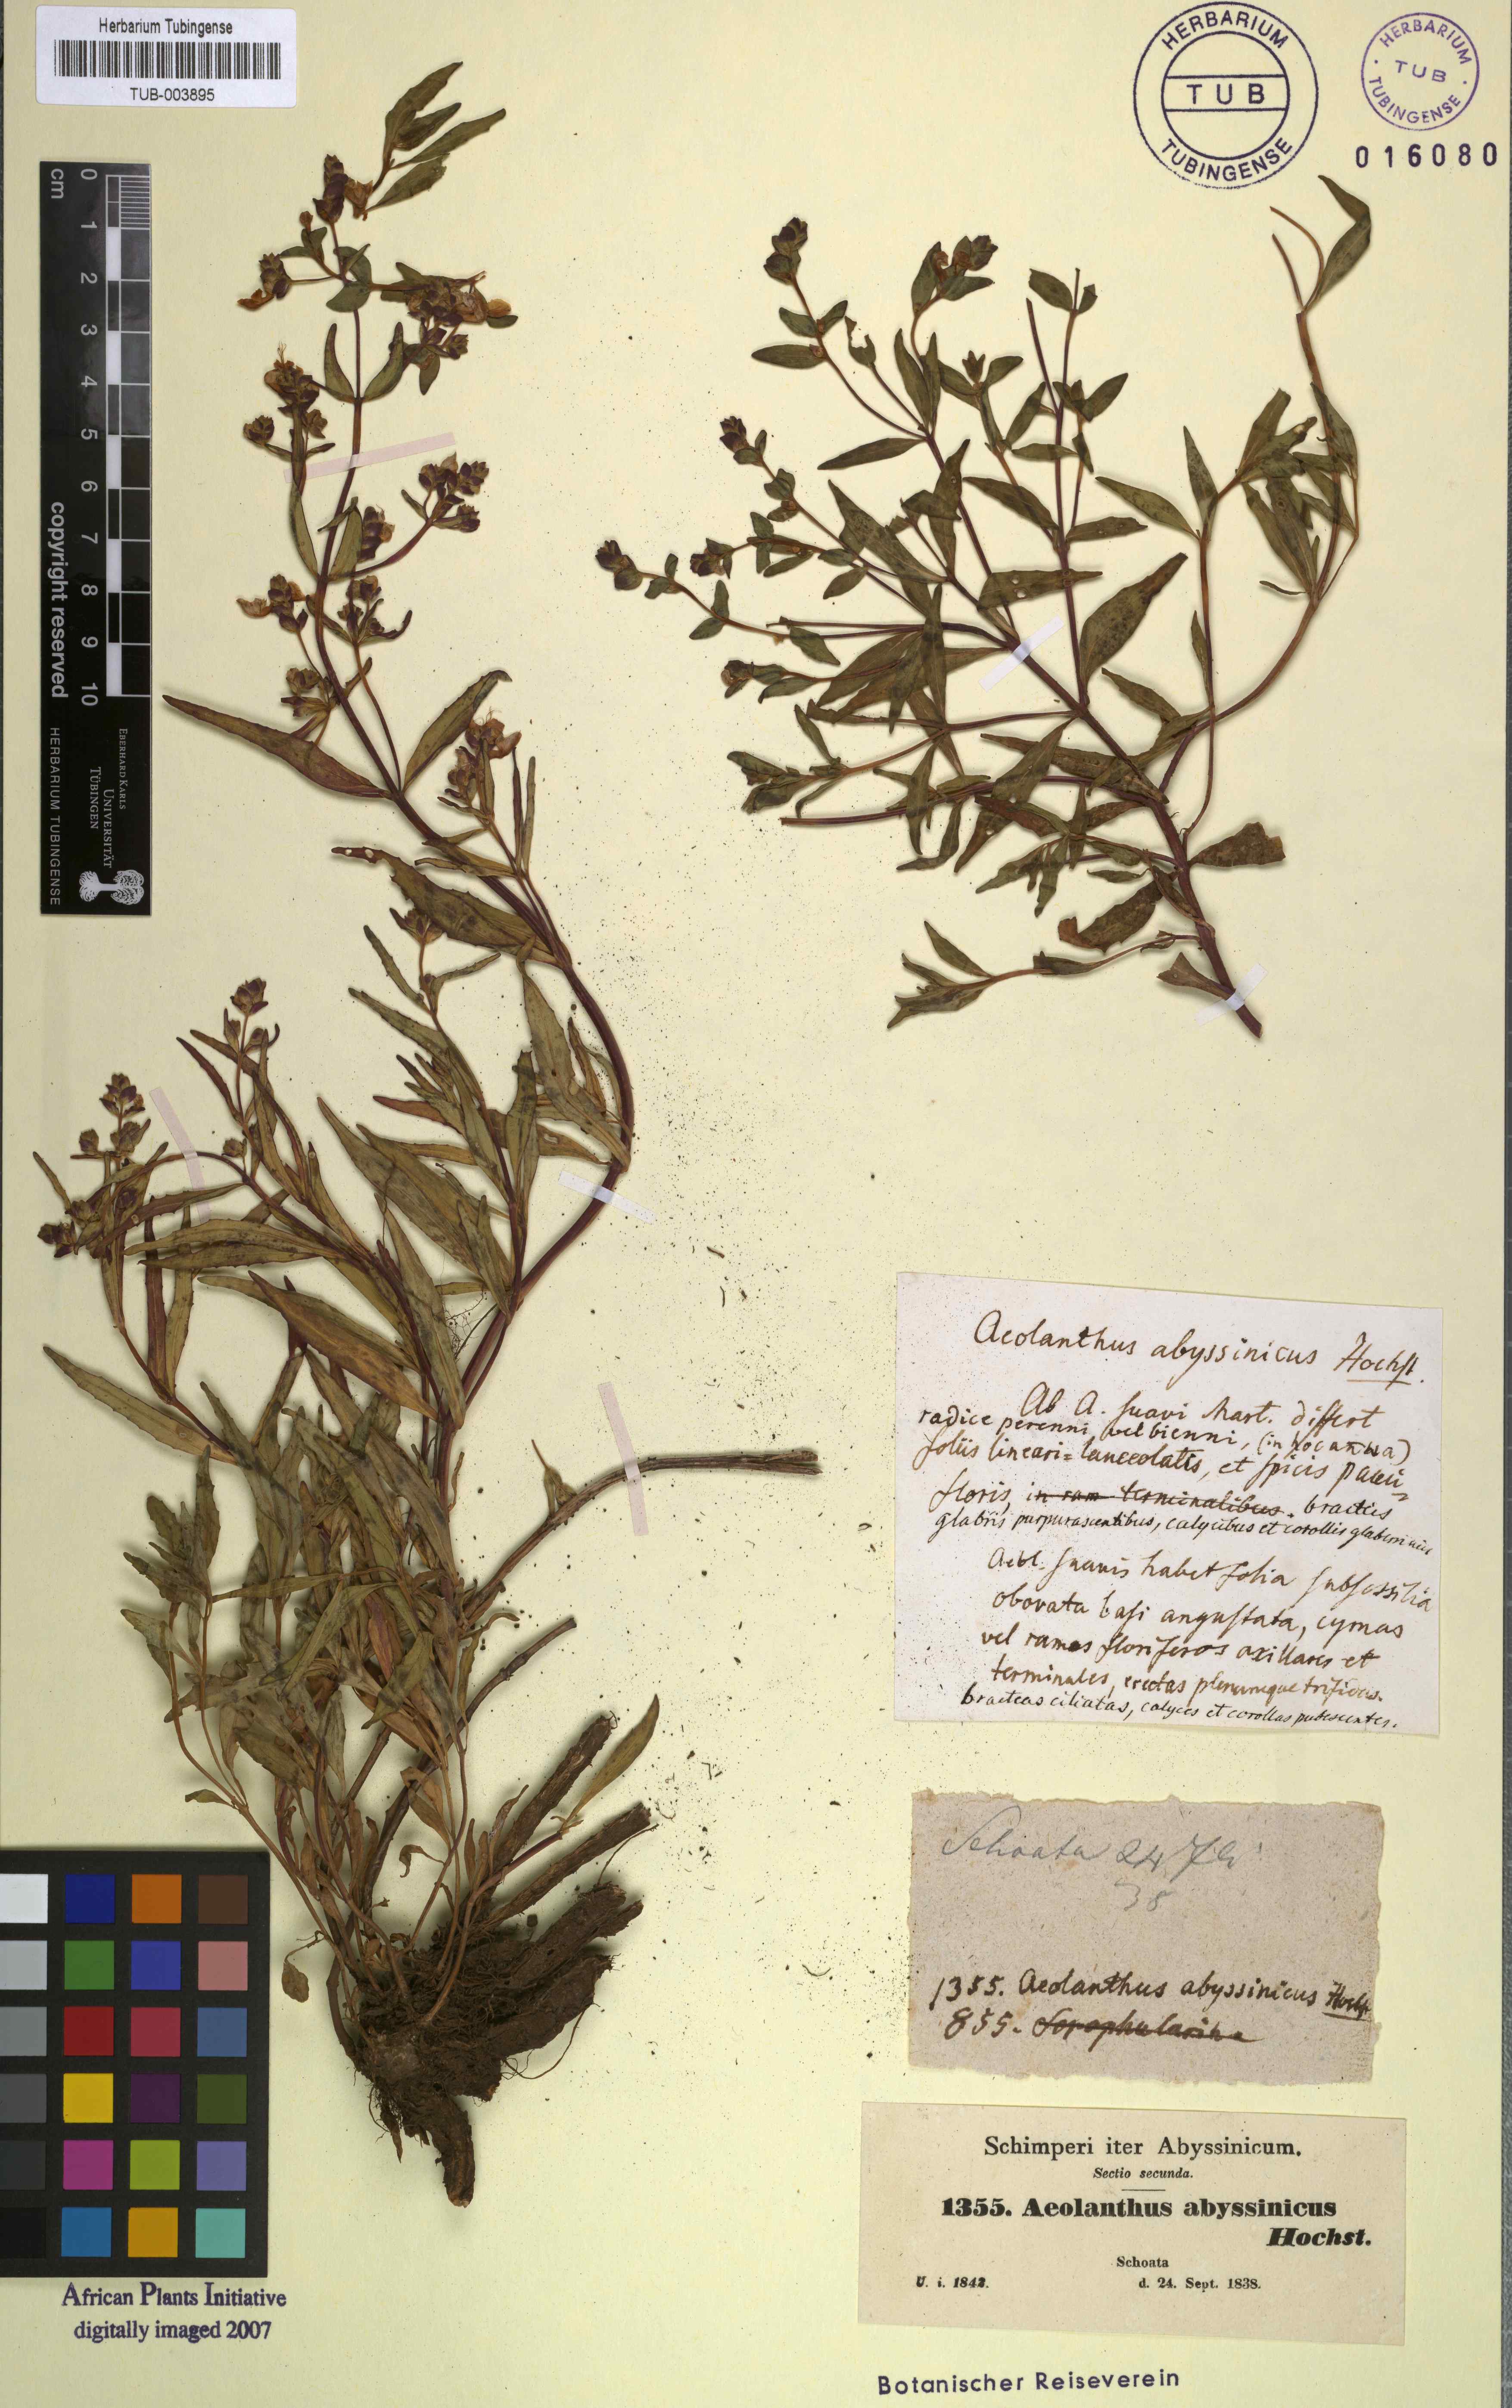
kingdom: Plantae
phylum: Tracheophyta
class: Magnoliopsida
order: Lamiales
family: Lamiaceae
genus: Aeollanthus
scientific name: Aeollanthus abyssinicus
